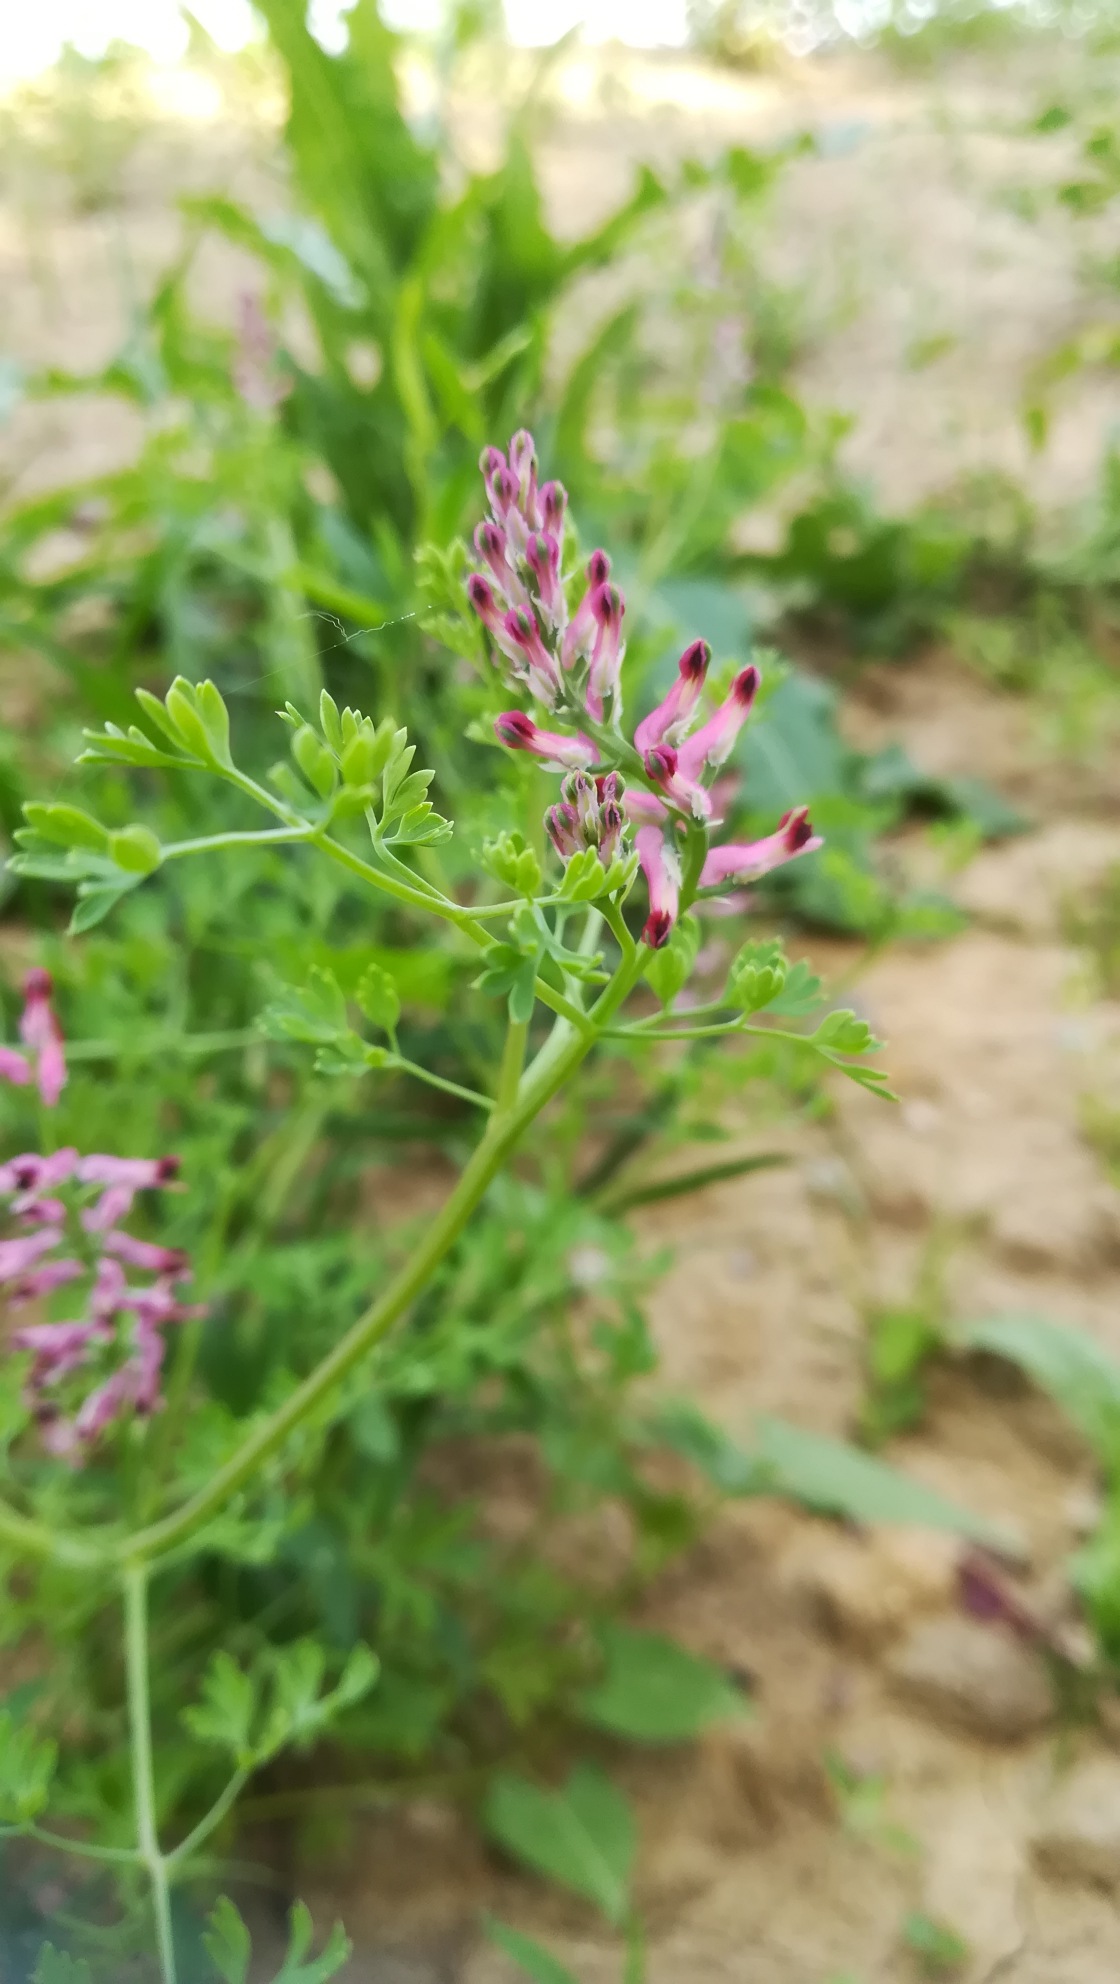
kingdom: Plantae
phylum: Tracheophyta
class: Magnoliopsida
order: Ranunculales
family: Papaveraceae
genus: Fumaria
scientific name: Fumaria officinalis
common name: Læge-jordrøg
